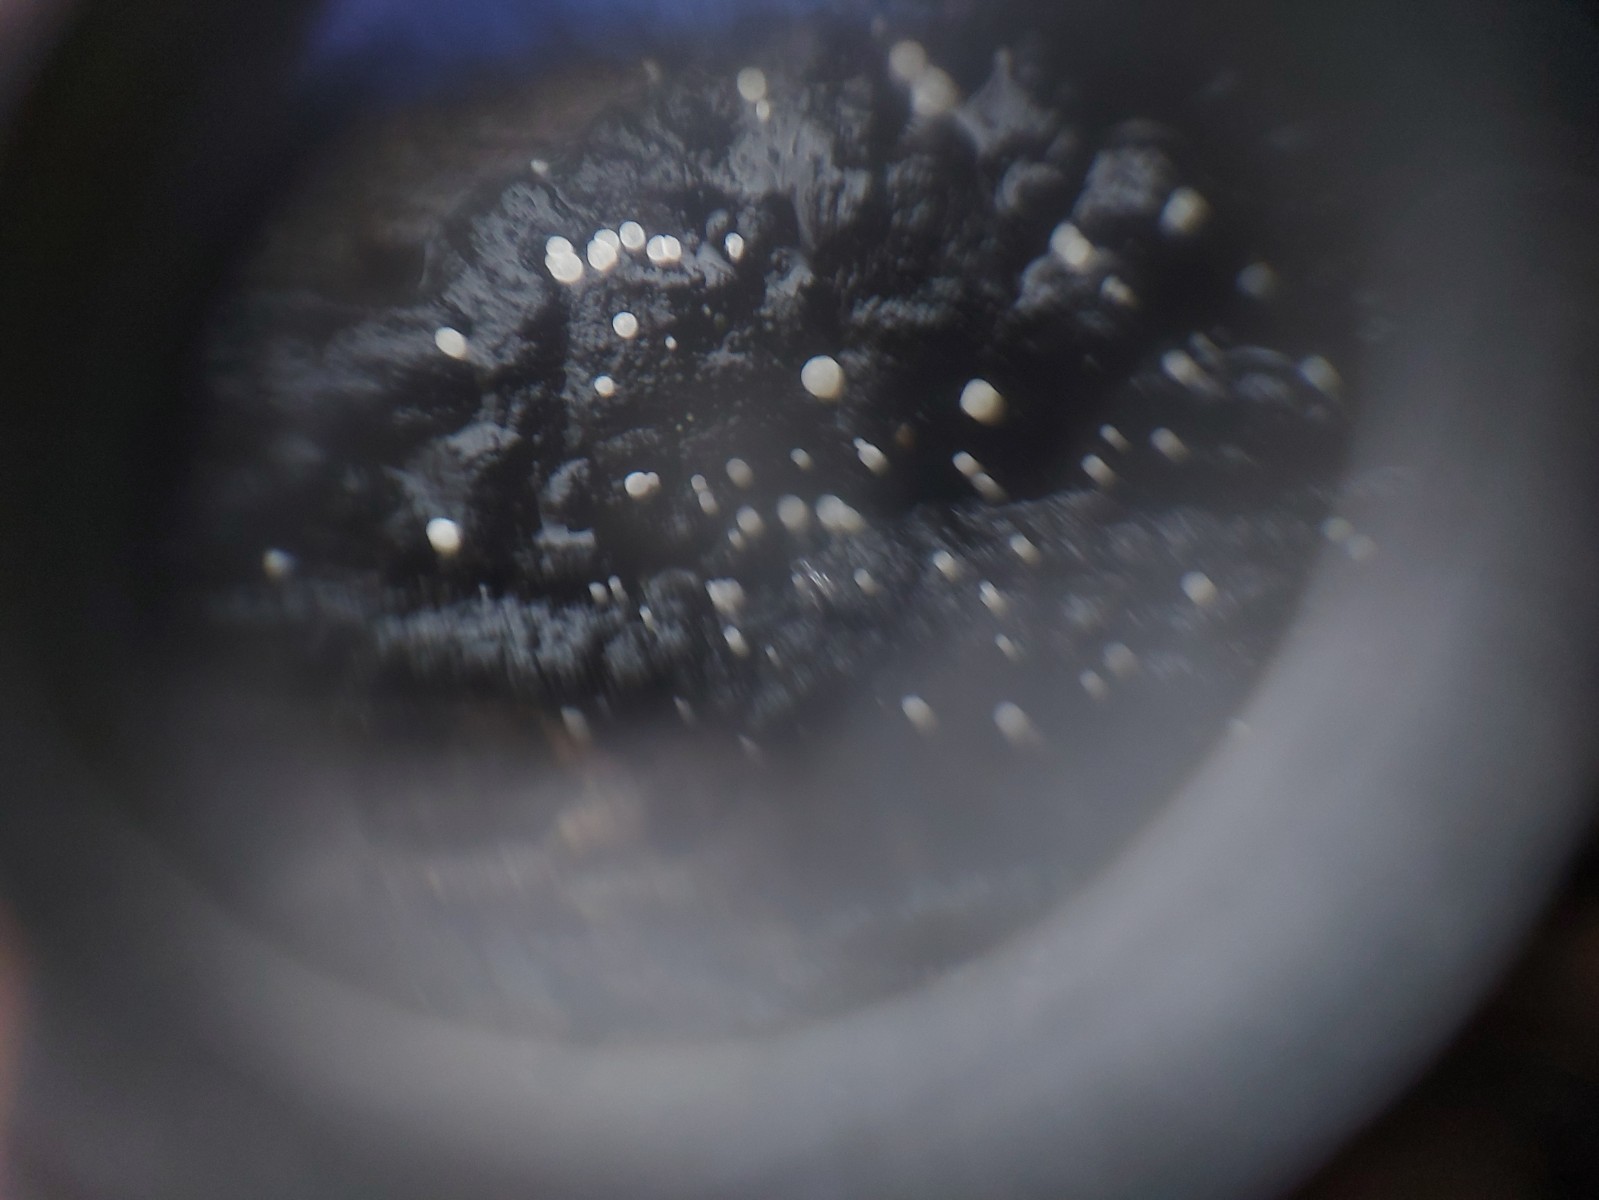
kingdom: Fungi
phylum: Ascomycota
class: Leotiomycetes
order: Helotiales
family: Hyaloscyphaceae
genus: Polydesmia
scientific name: Polydesmia pruinosa
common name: dunskive
